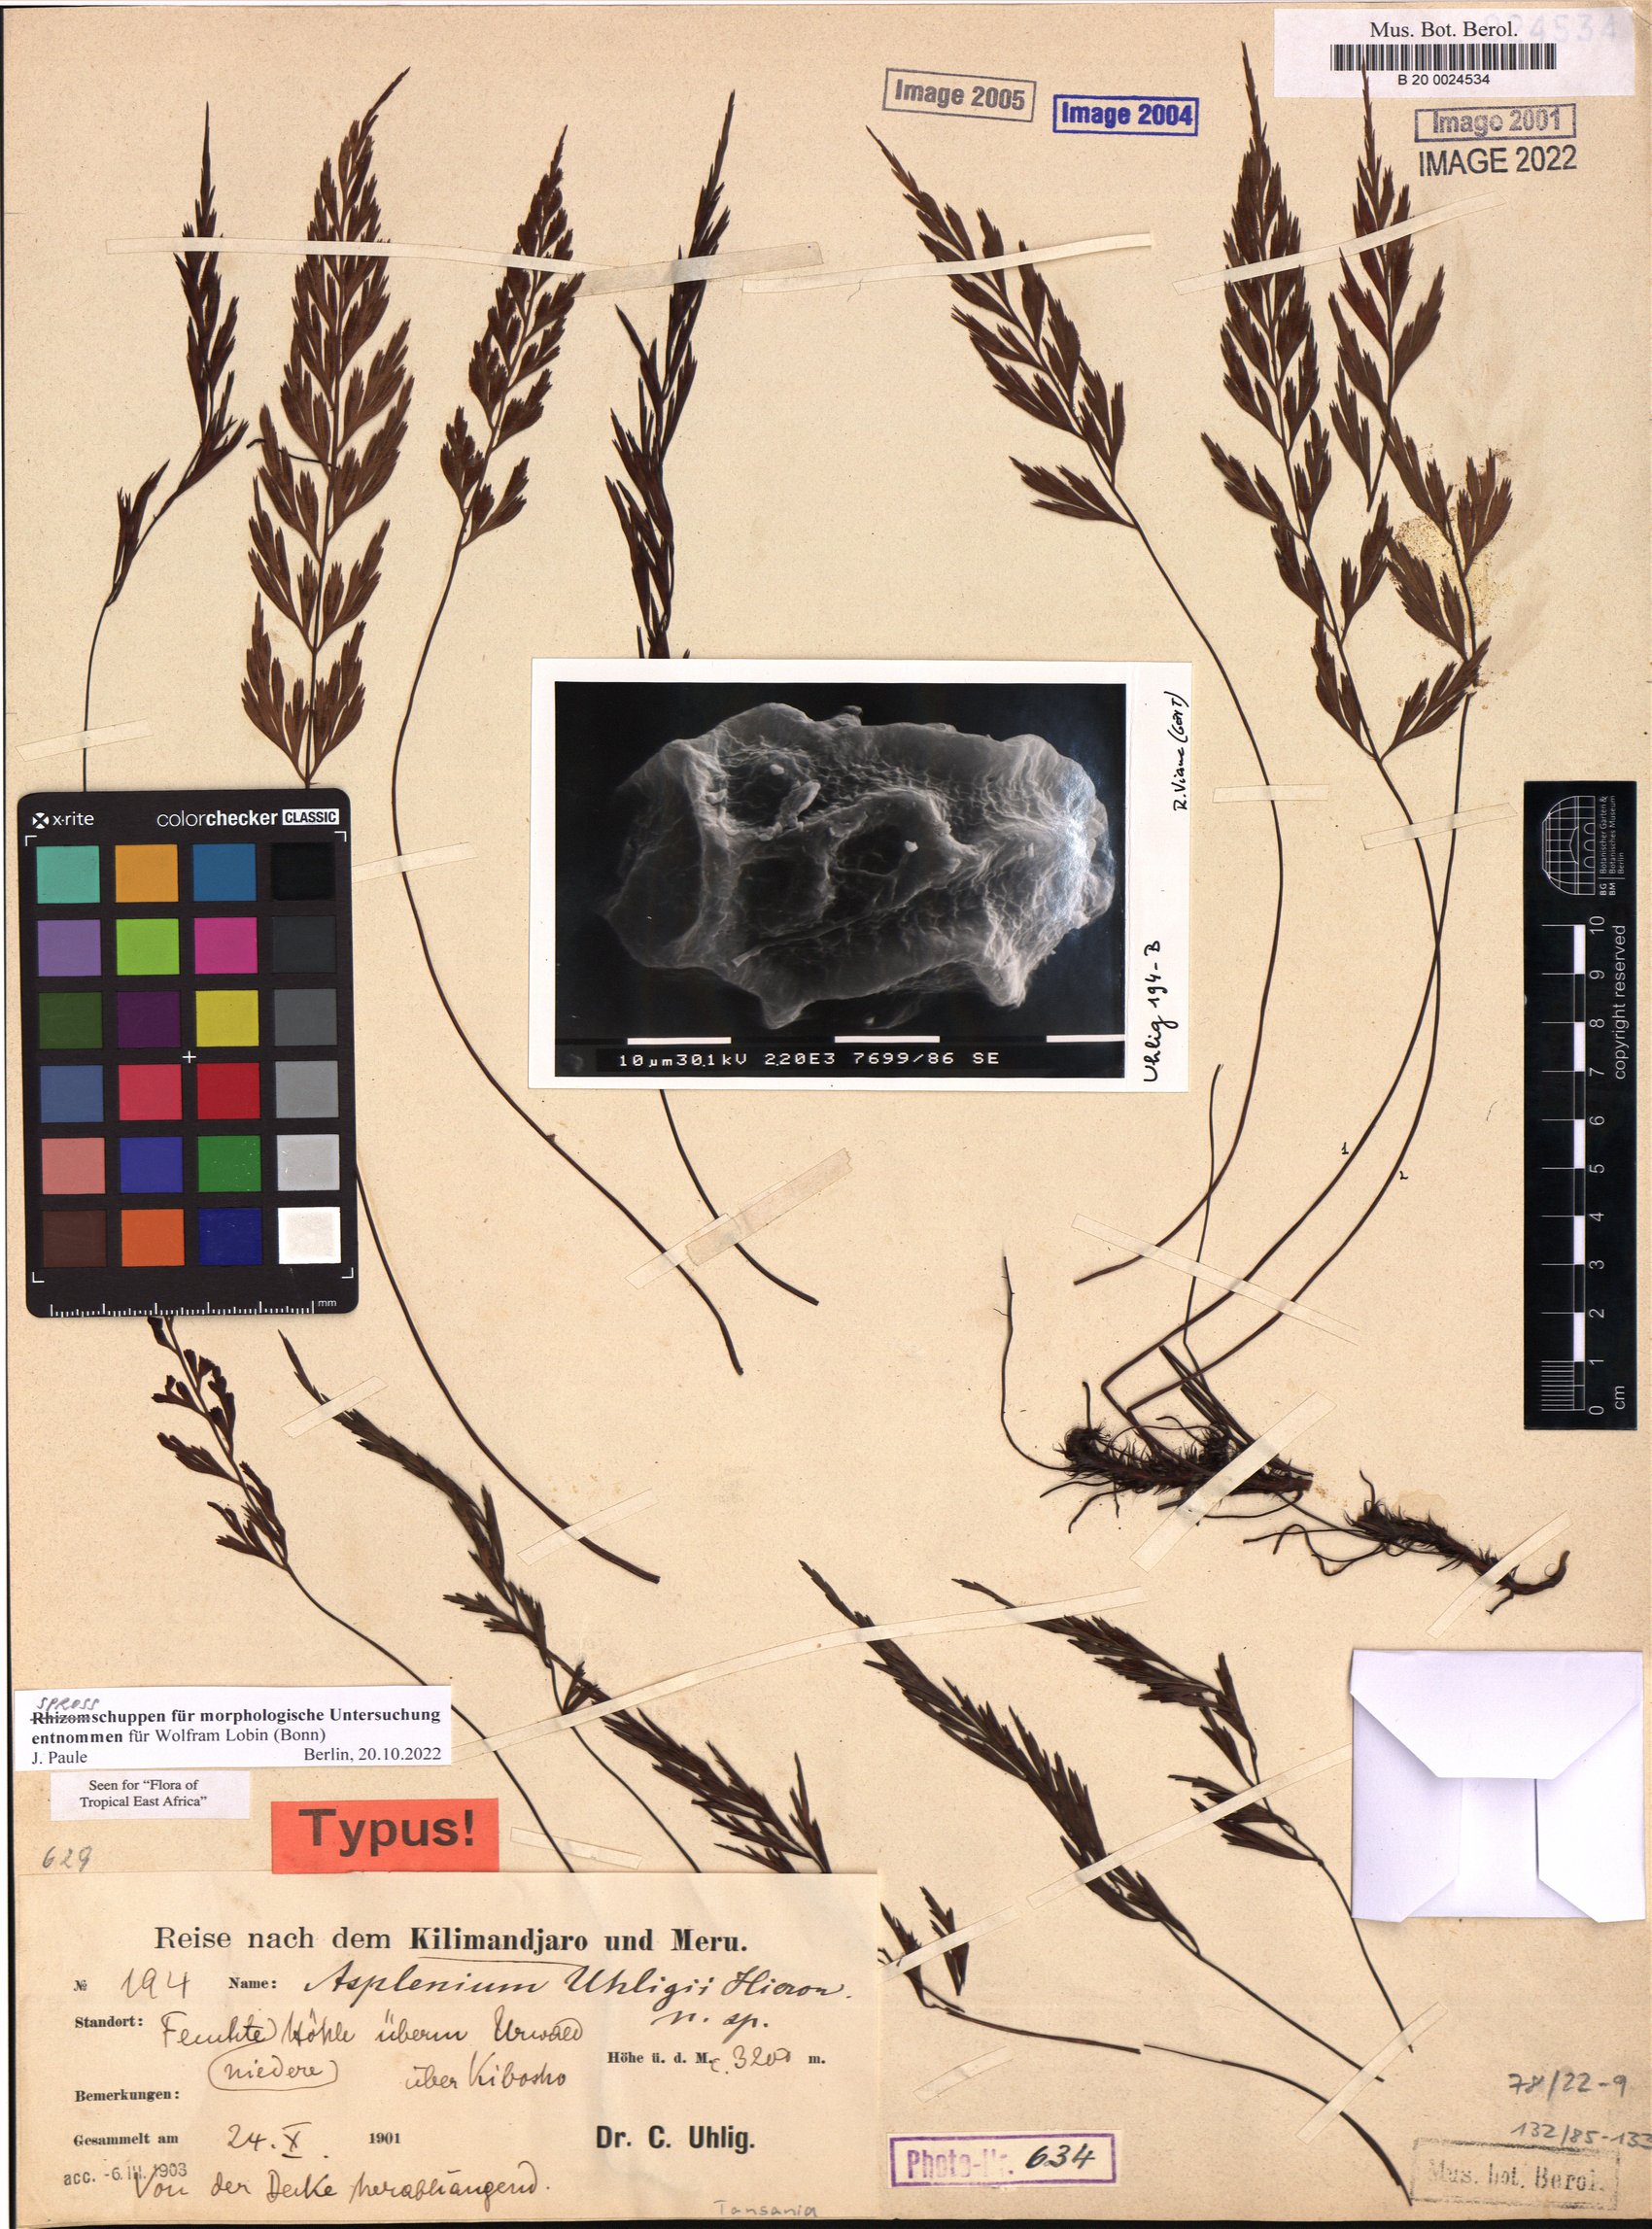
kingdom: Plantae
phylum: Tracheophyta
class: Polypodiopsida
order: Polypodiales
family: Aspleniaceae
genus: Asplenium
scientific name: Asplenium uhligii
